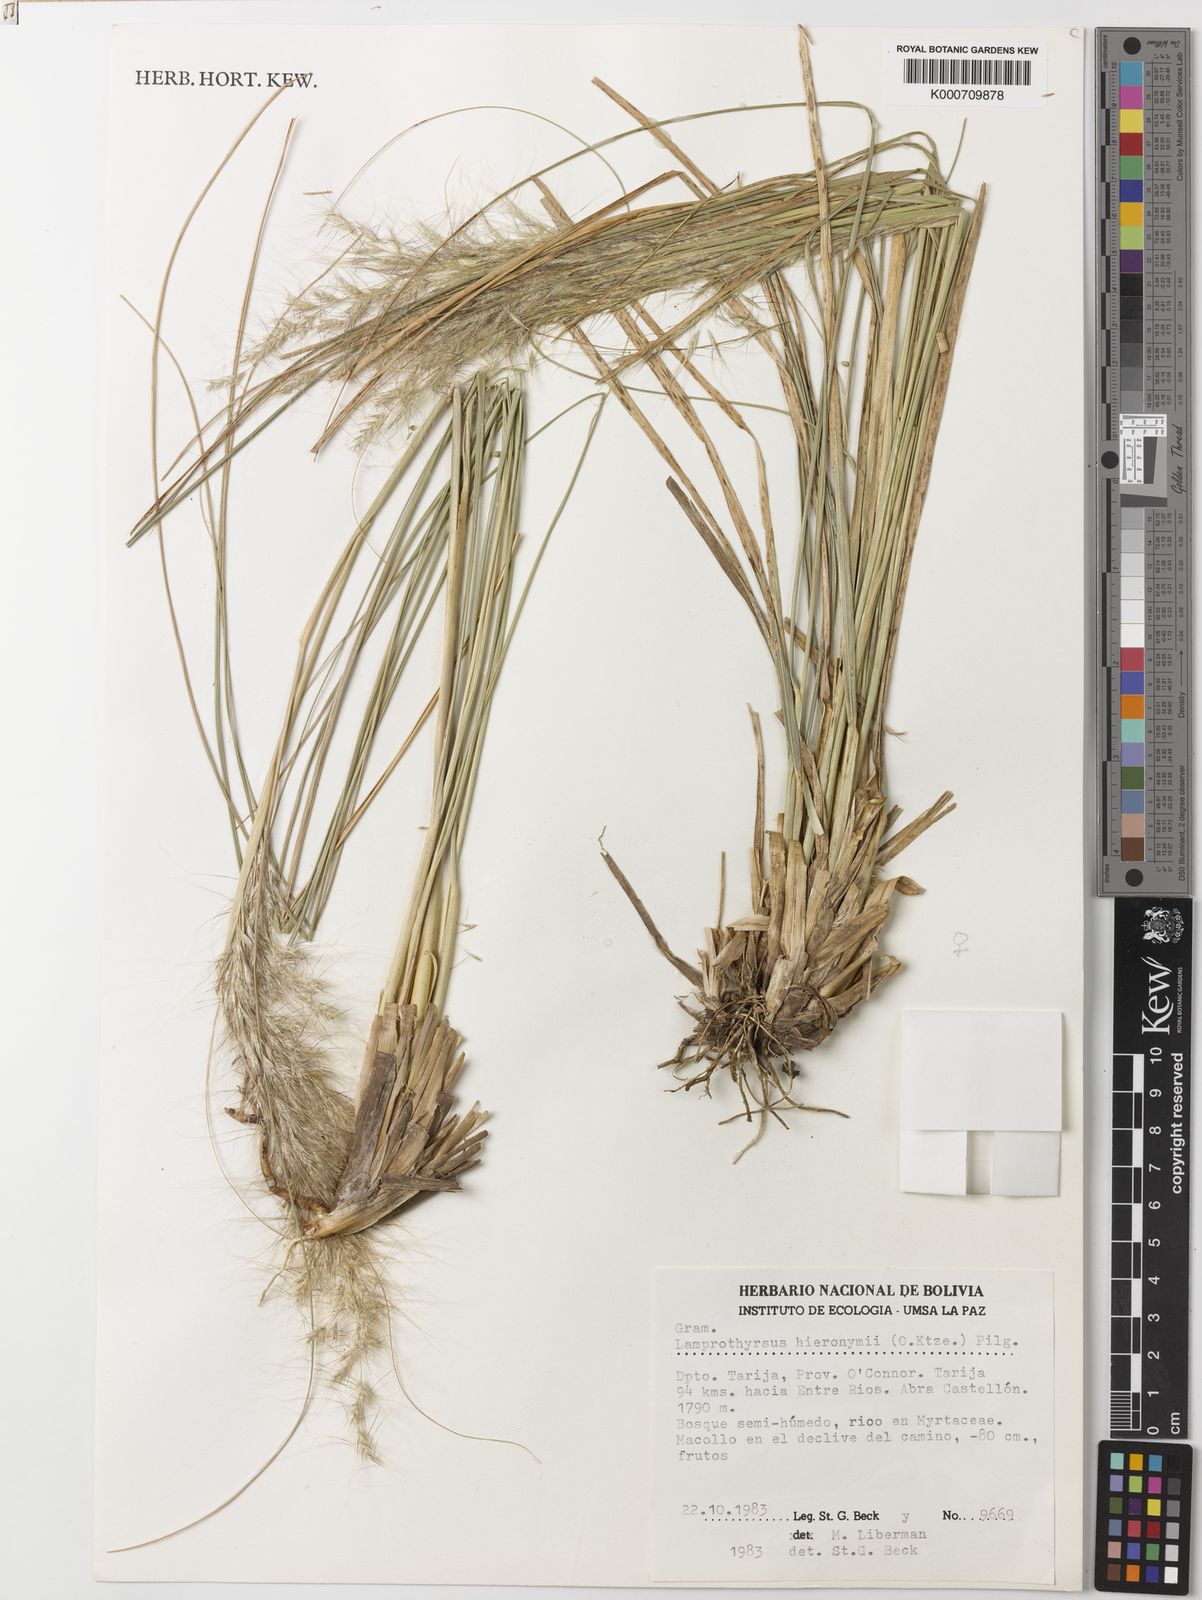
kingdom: Plantae
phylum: Tracheophyta
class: Liliopsida
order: Poales
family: Poaceae
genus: Cortaderia
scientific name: Cortaderia hieronymi
